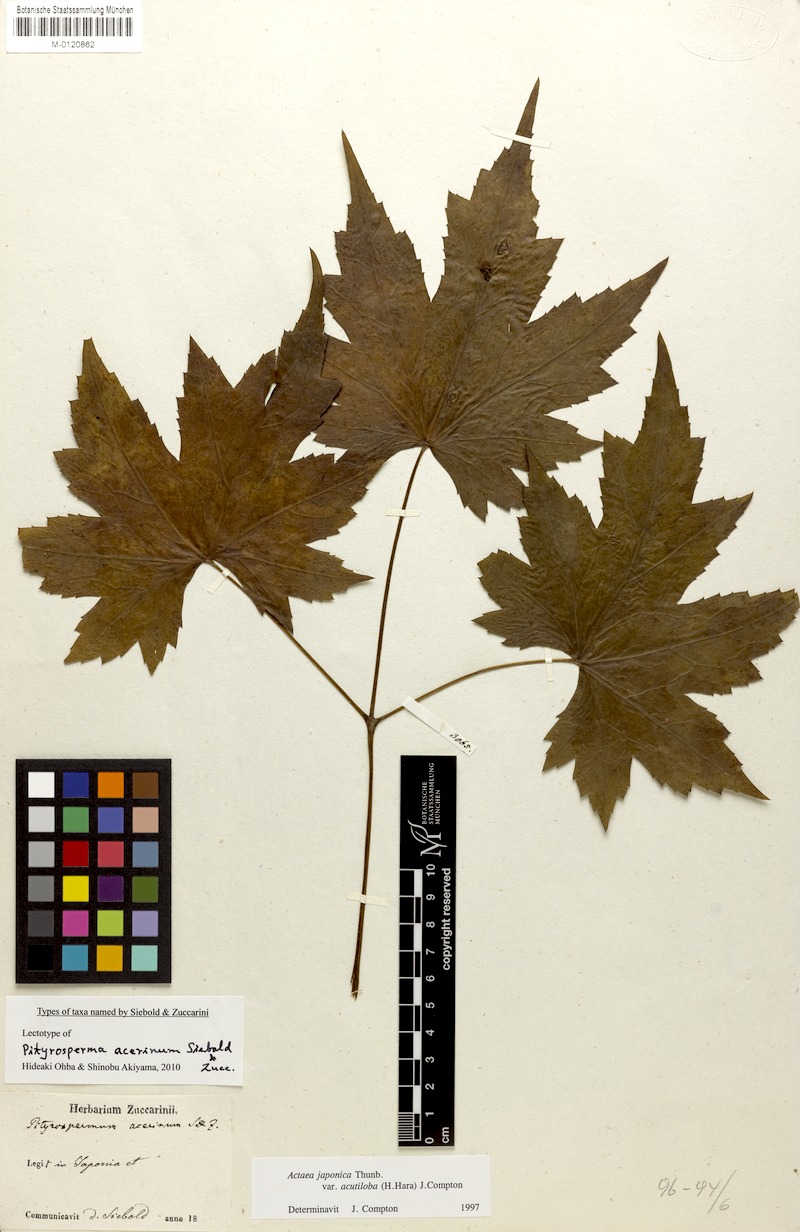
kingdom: Plantae
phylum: Tracheophyta
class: Magnoliopsida
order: Ranunculales
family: Ranunculaceae
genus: Actaea
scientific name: Actaea japonica
